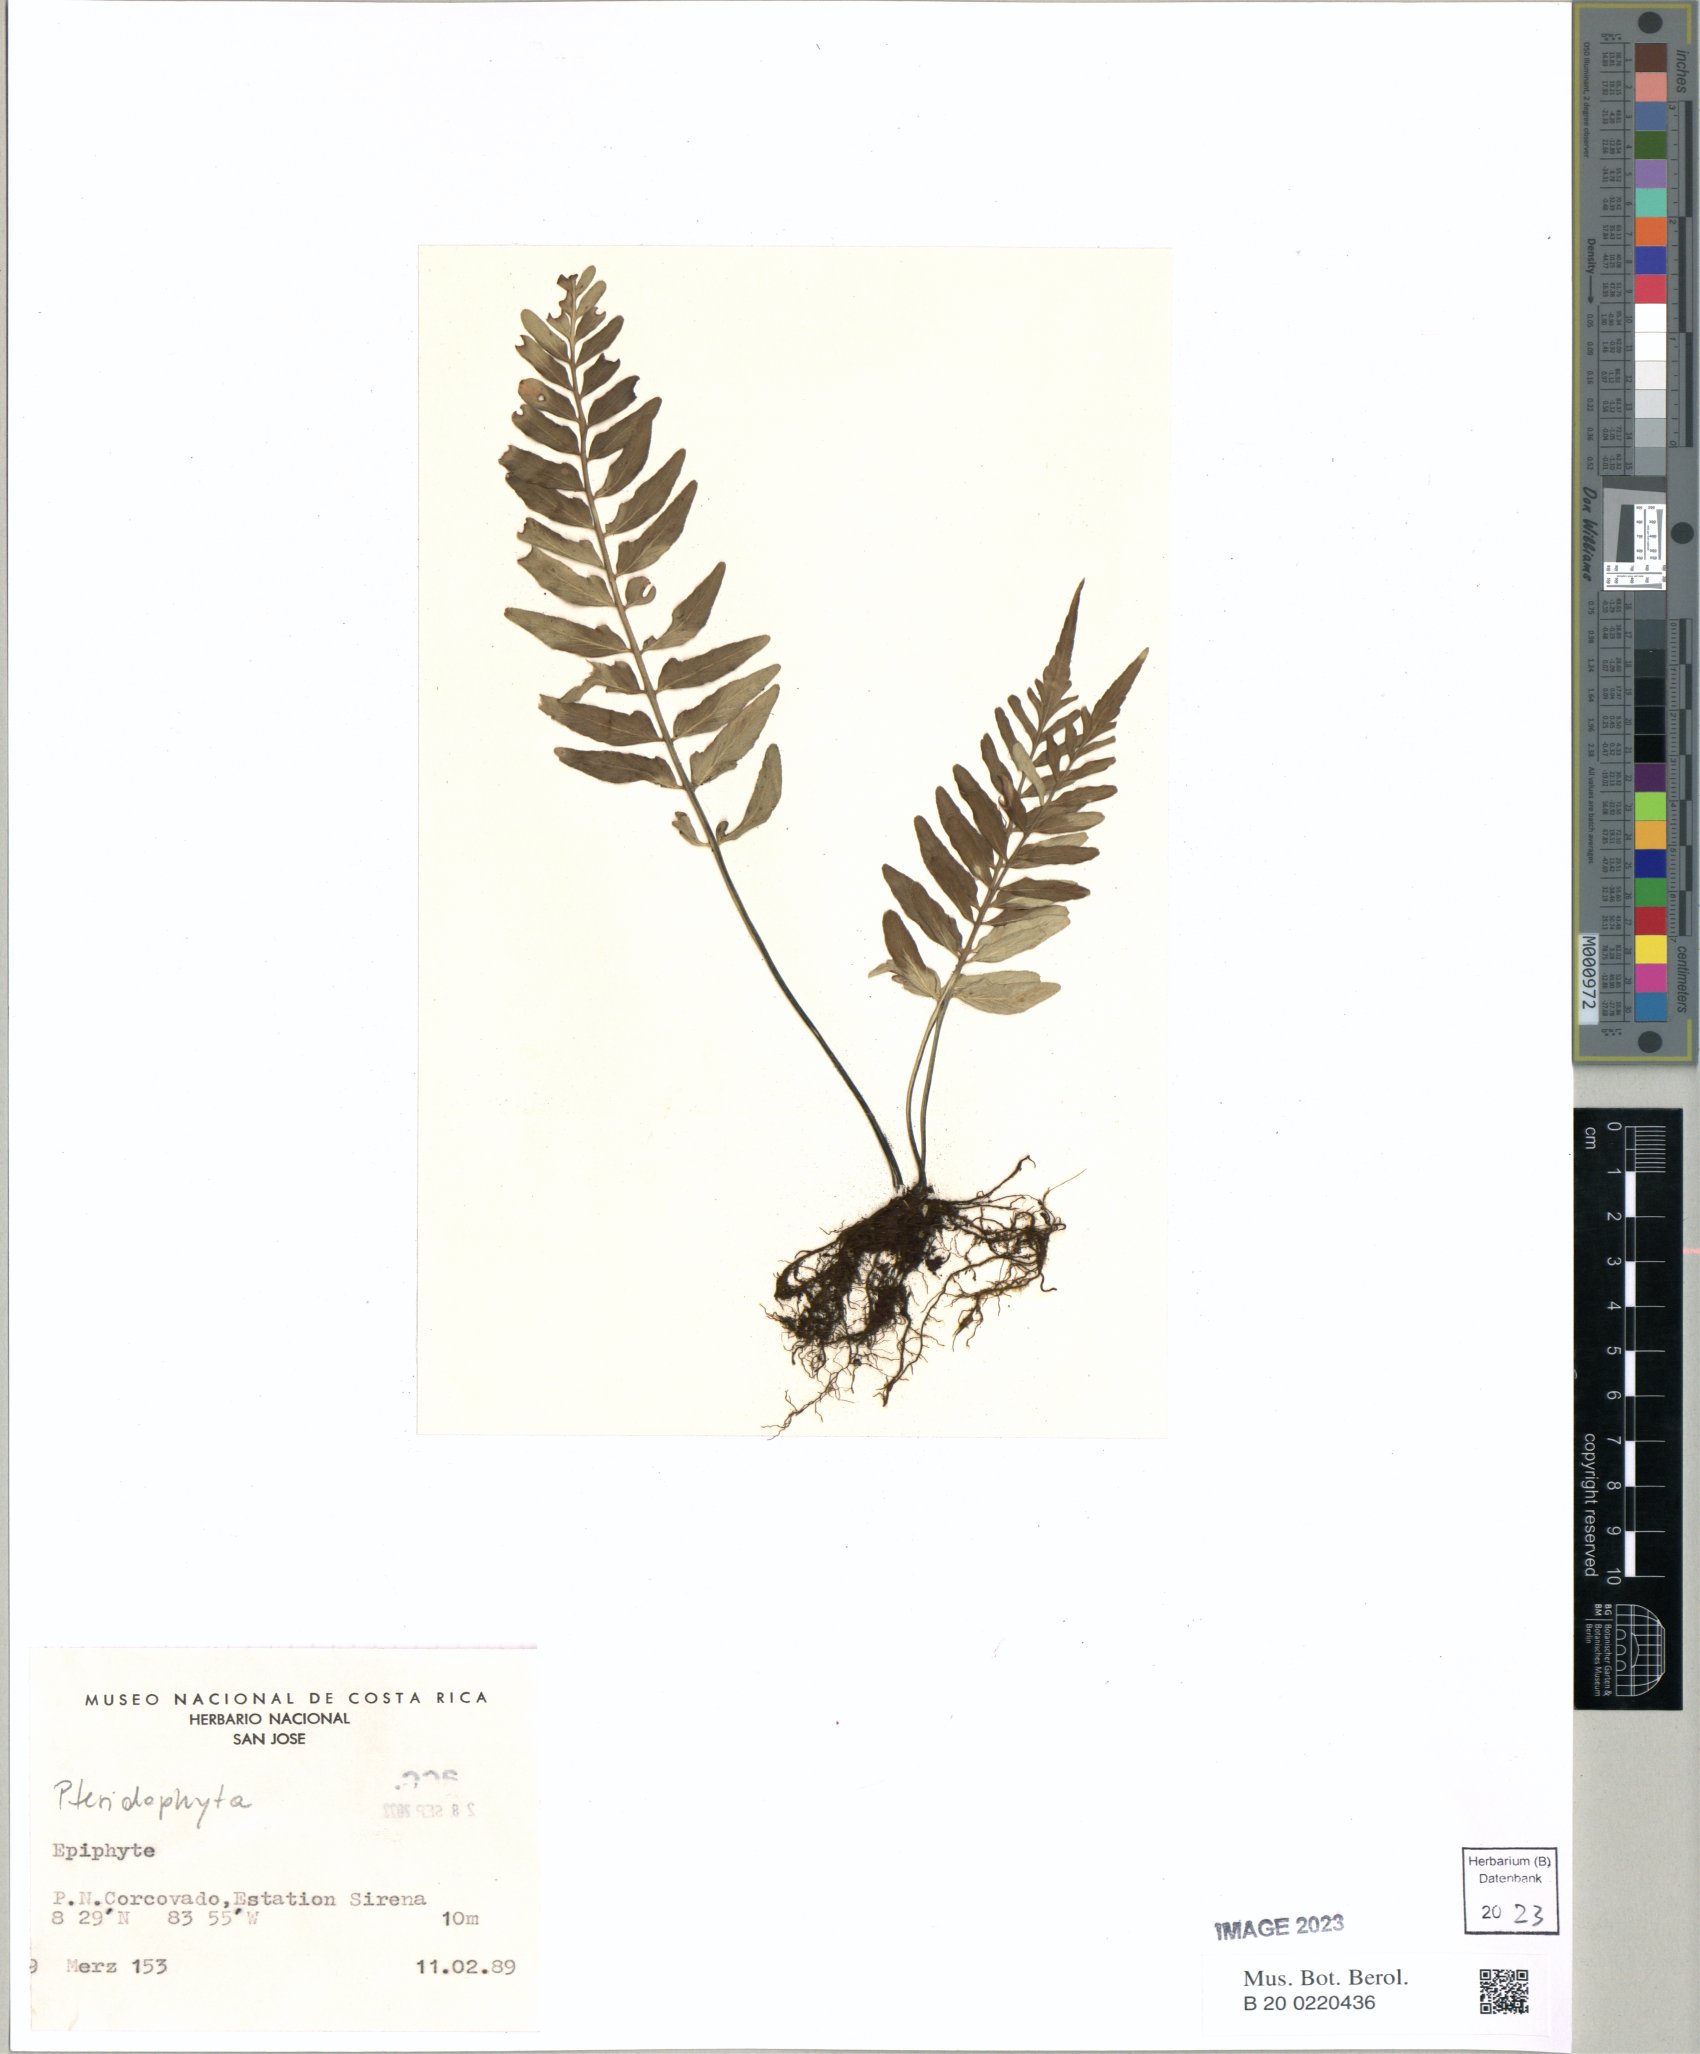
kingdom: Plantae
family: Pteridophyta
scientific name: Pteridophyta
